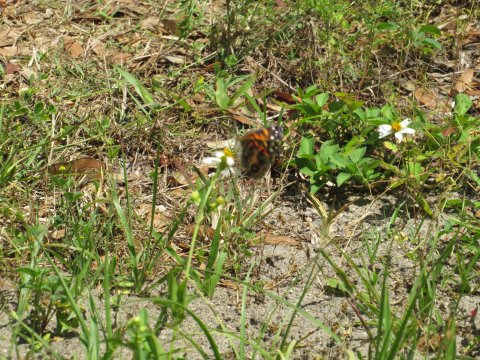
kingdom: Animalia
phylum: Arthropoda
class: Insecta
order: Lepidoptera
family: Nymphalidae
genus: Vanessa
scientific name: Vanessa virginiensis
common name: American Lady
